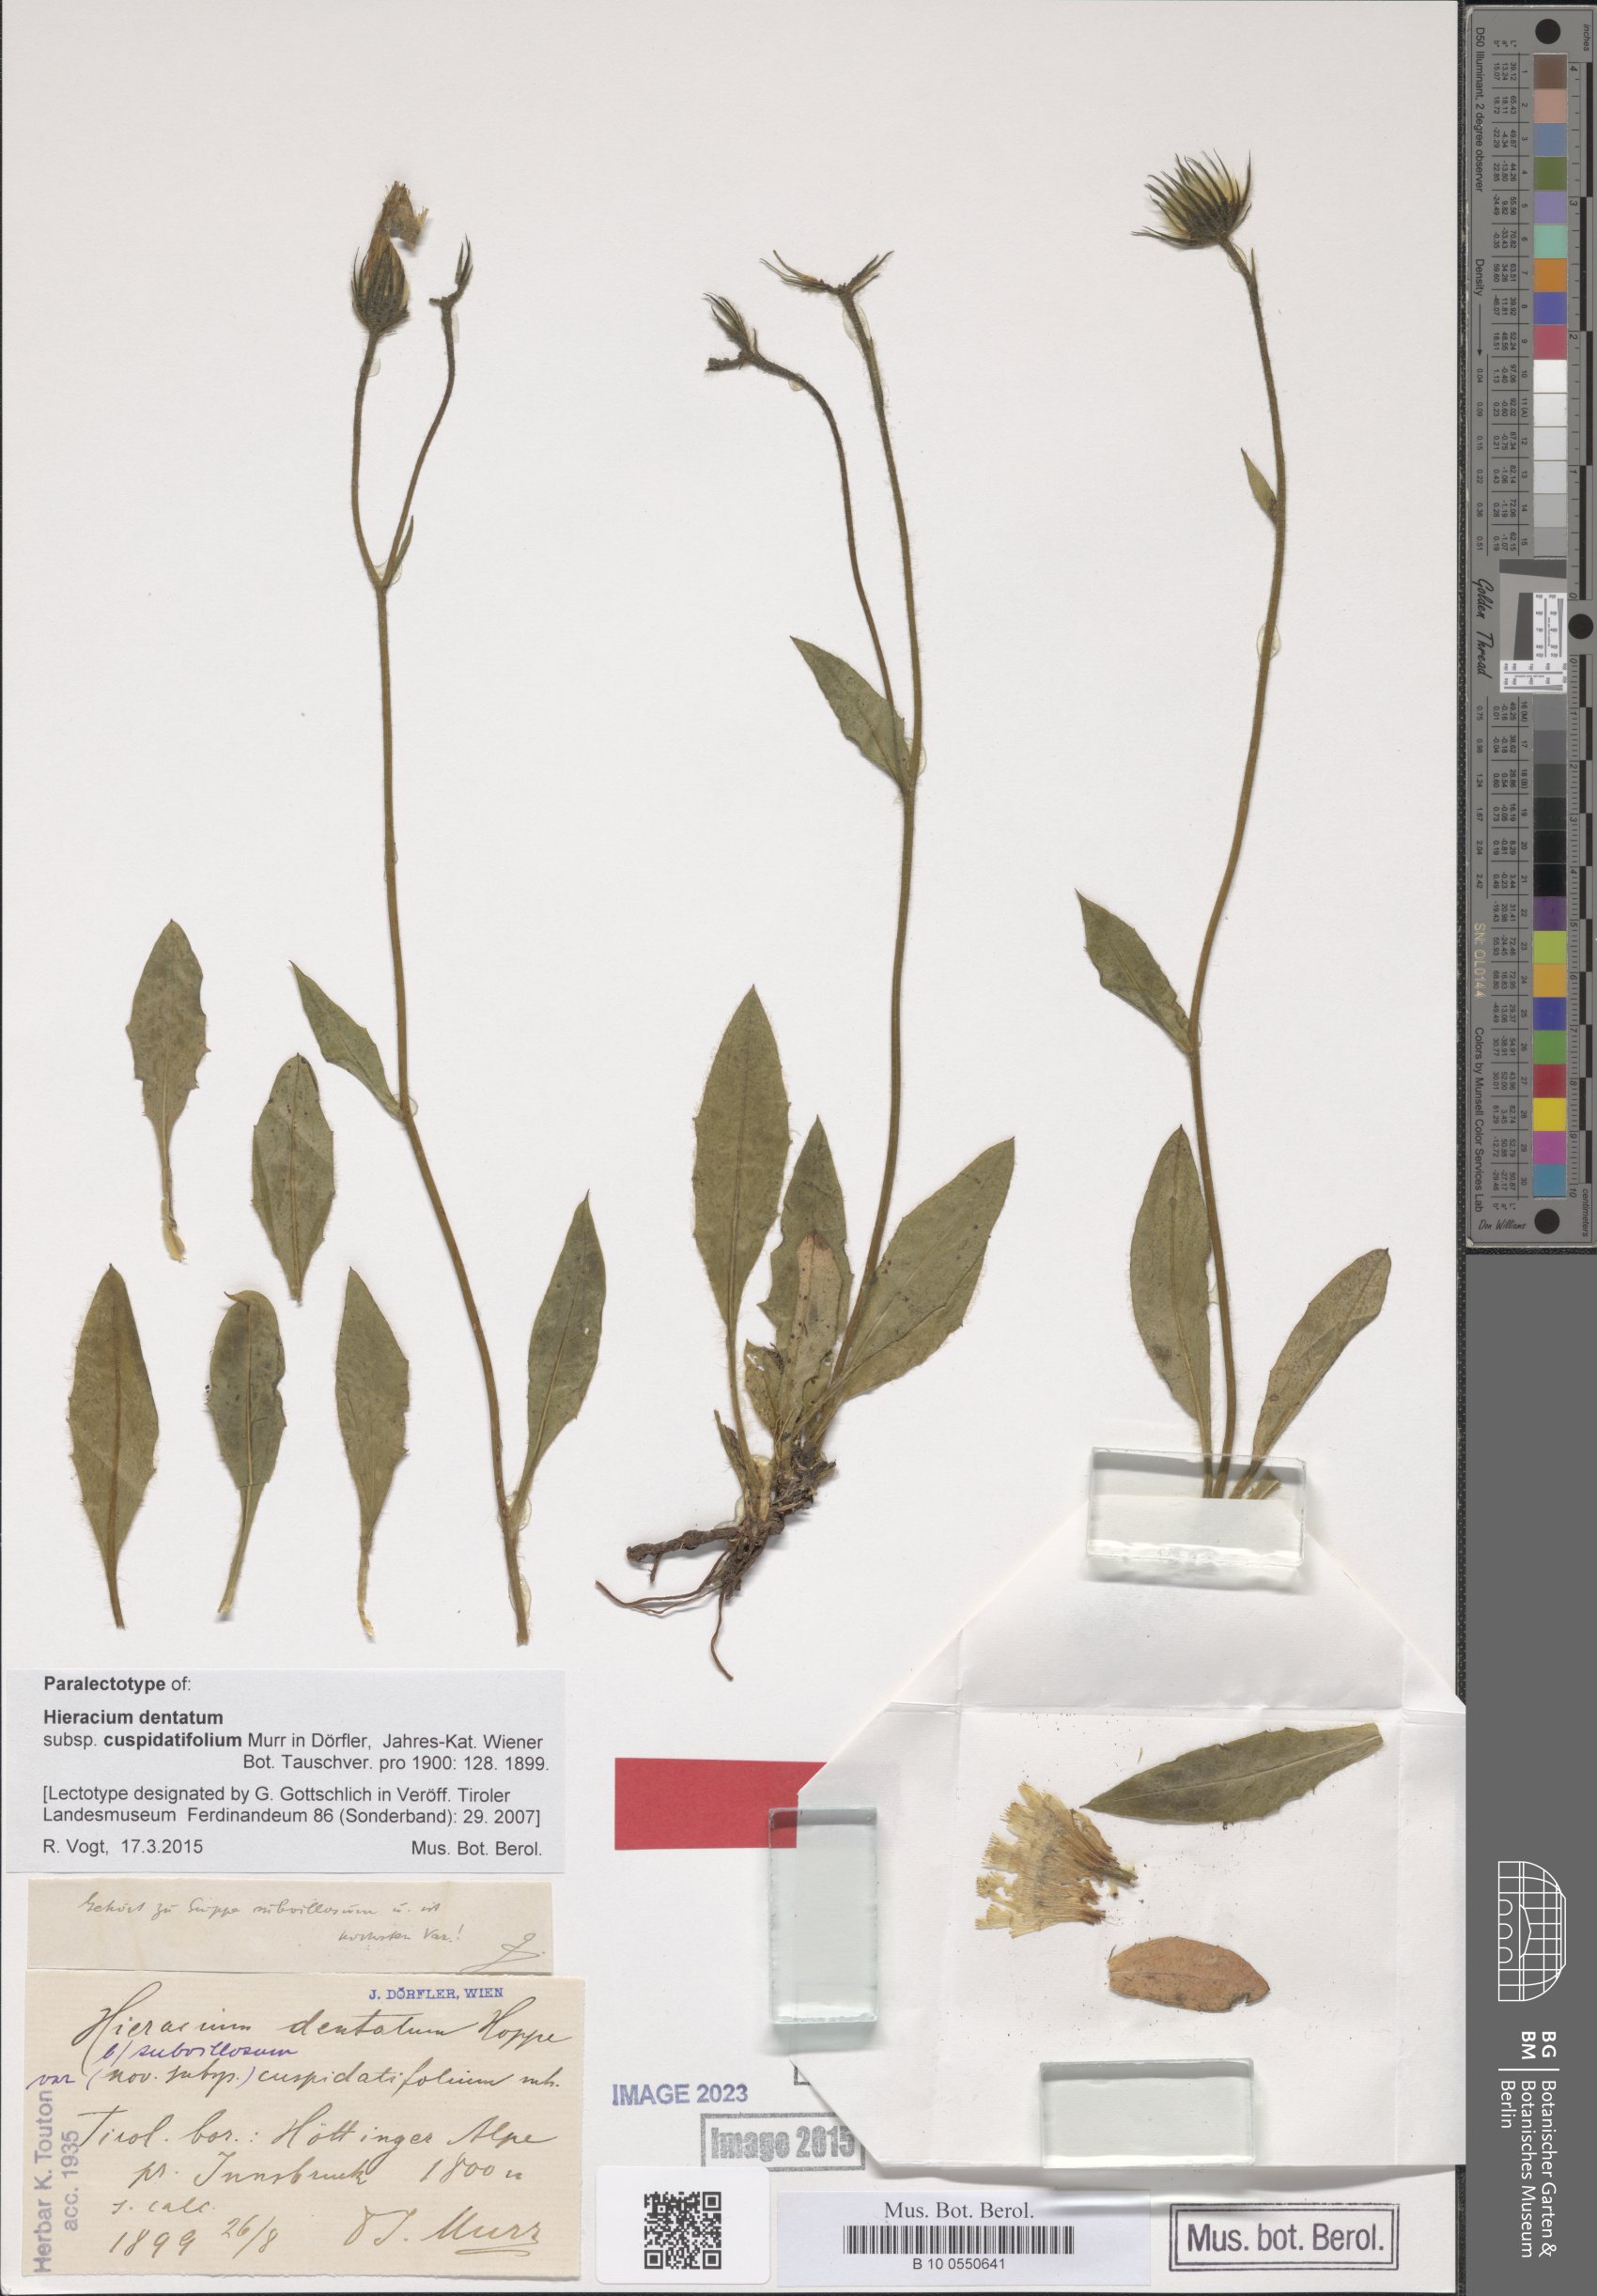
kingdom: Plantae
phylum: Tracheophyta
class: Magnoliopsida
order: Asterales
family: Asteraceae
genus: Hieracium
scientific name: Hieracium dentatum
